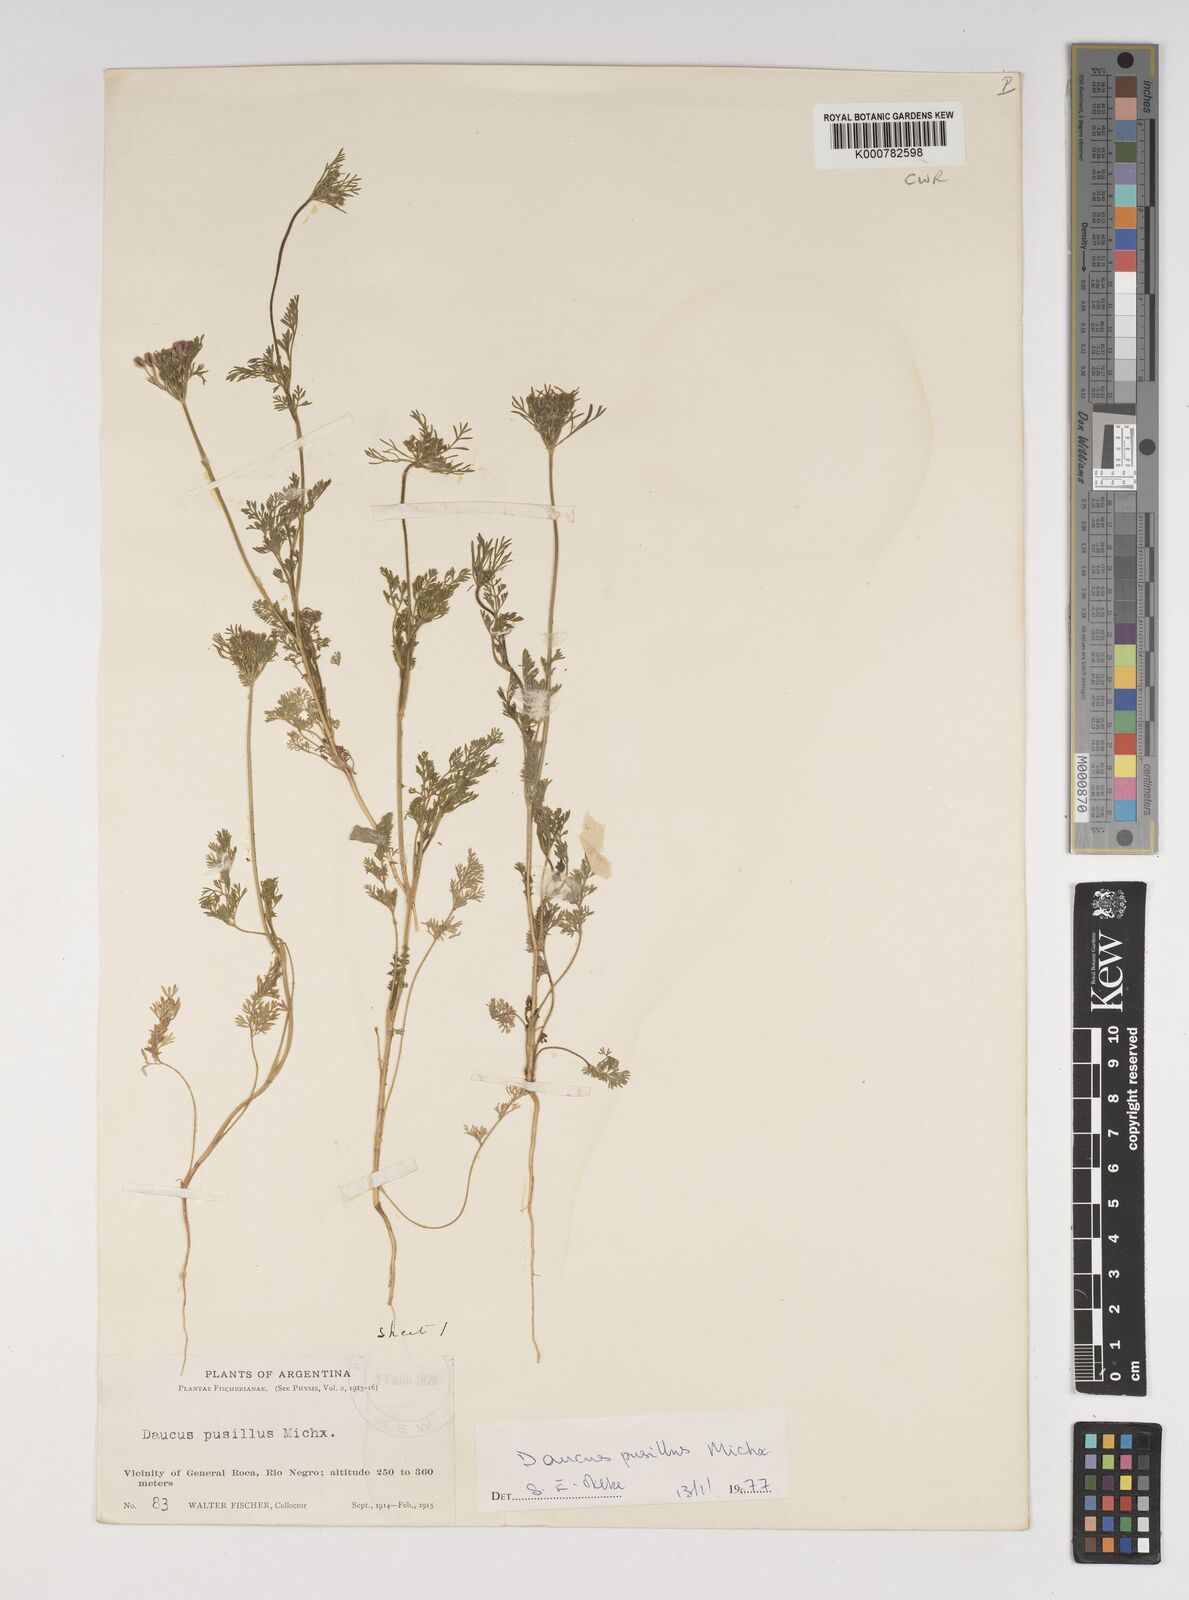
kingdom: Plantae
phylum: Tracheophyta
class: Magnoliopsida
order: Apiales
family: Apiaceae
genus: Daucus
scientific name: Daucus pusillus
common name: Southwest wild carrot
